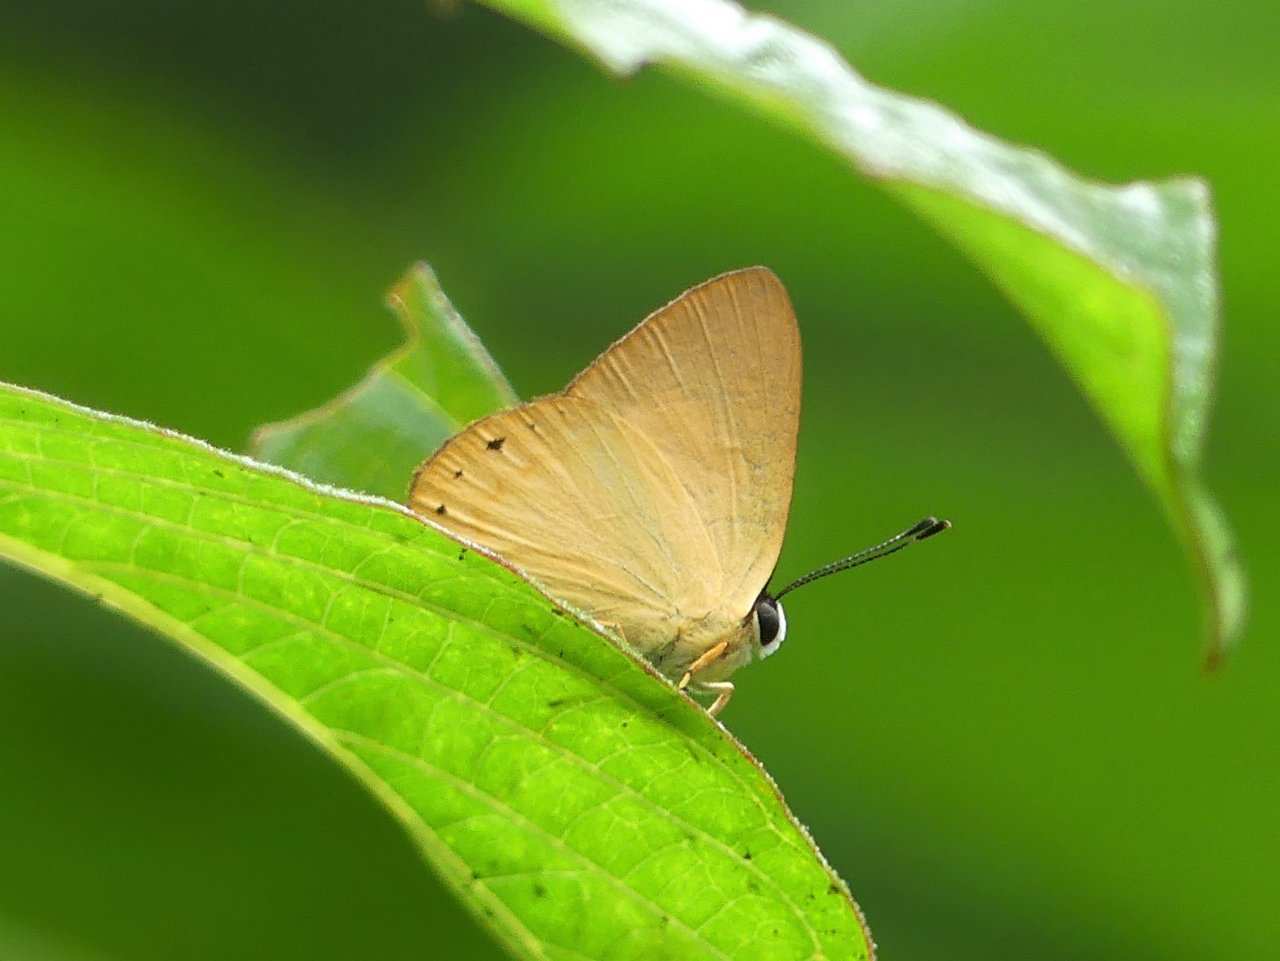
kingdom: Animalia
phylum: Arthropoda
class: Insecta
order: Lepidoptera
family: Lycaenidae
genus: Euselasia
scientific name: Euselasia chrysippe
